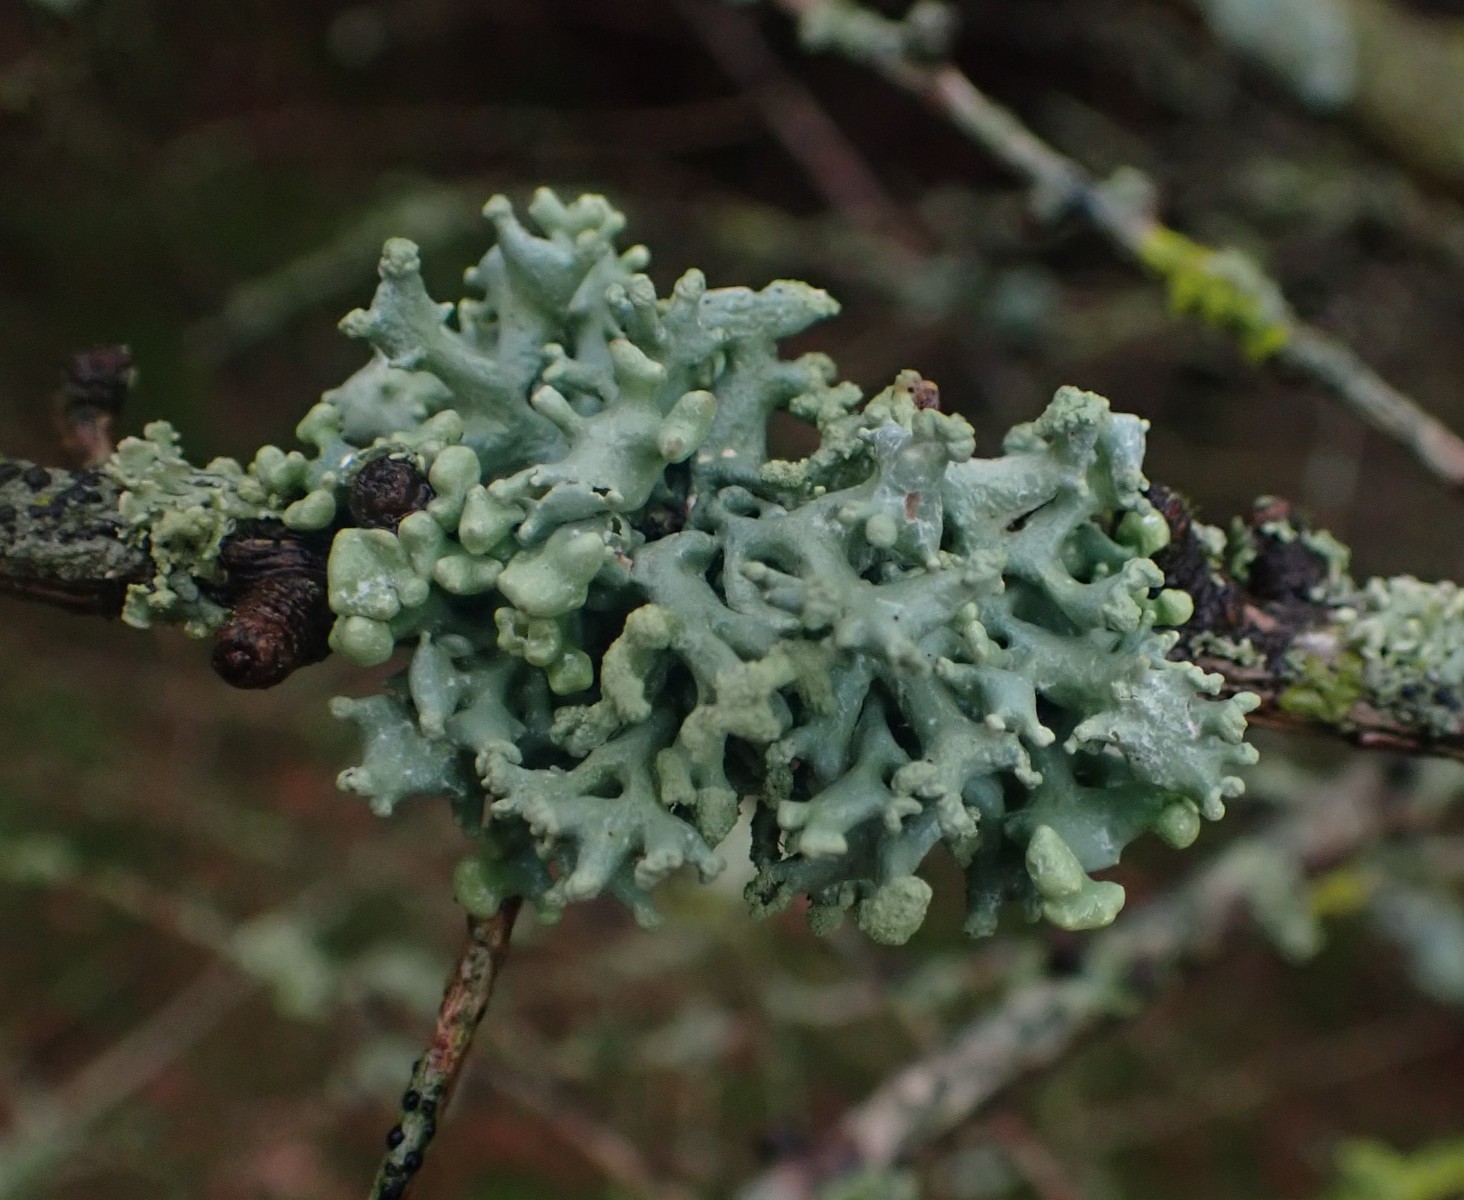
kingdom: Fungi
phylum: Ascomycota
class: Lecanoromycetes
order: Lecanorales
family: Parmeliaceae
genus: Hypogymnia
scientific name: Hypogymnia tubulosa
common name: finger-kvistlav
